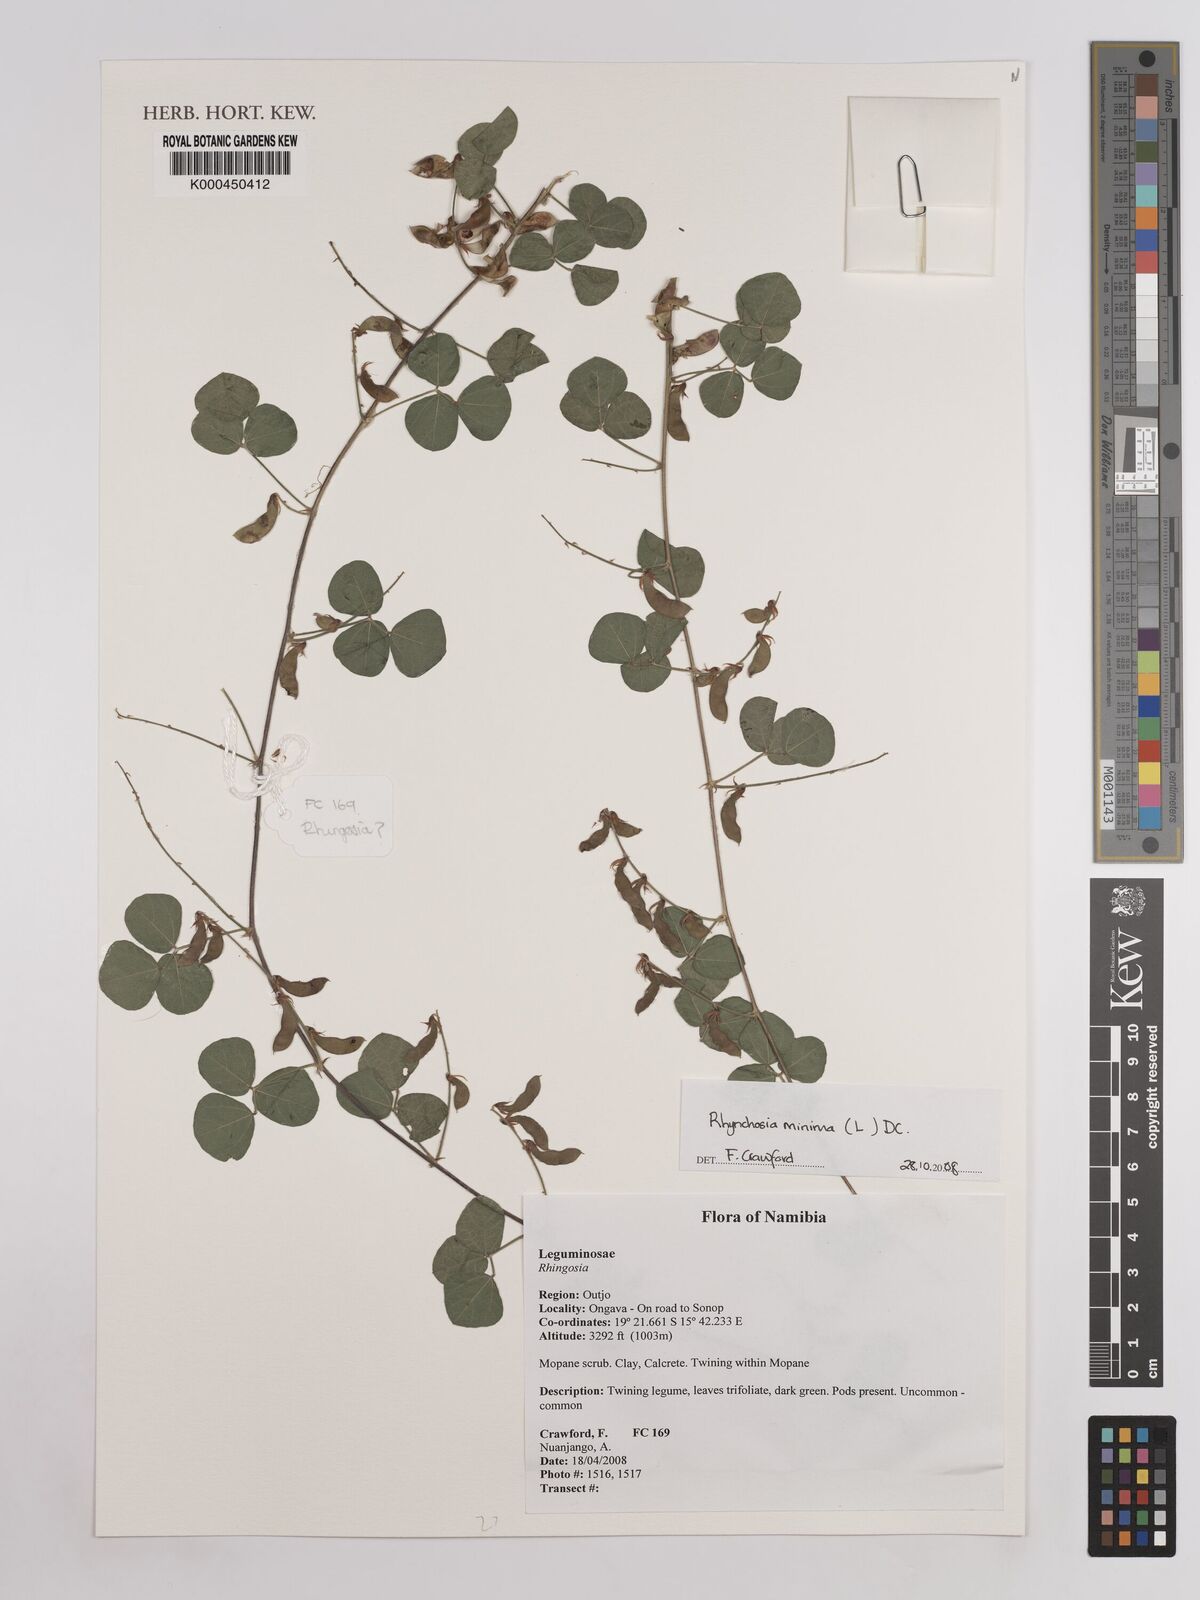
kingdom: Plantae
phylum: Tracheophyta
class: Magnoliopsida
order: Fabales
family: Fabaceae
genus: Rhynchosia
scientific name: Rhynchosia minima
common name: Least snoutbean
